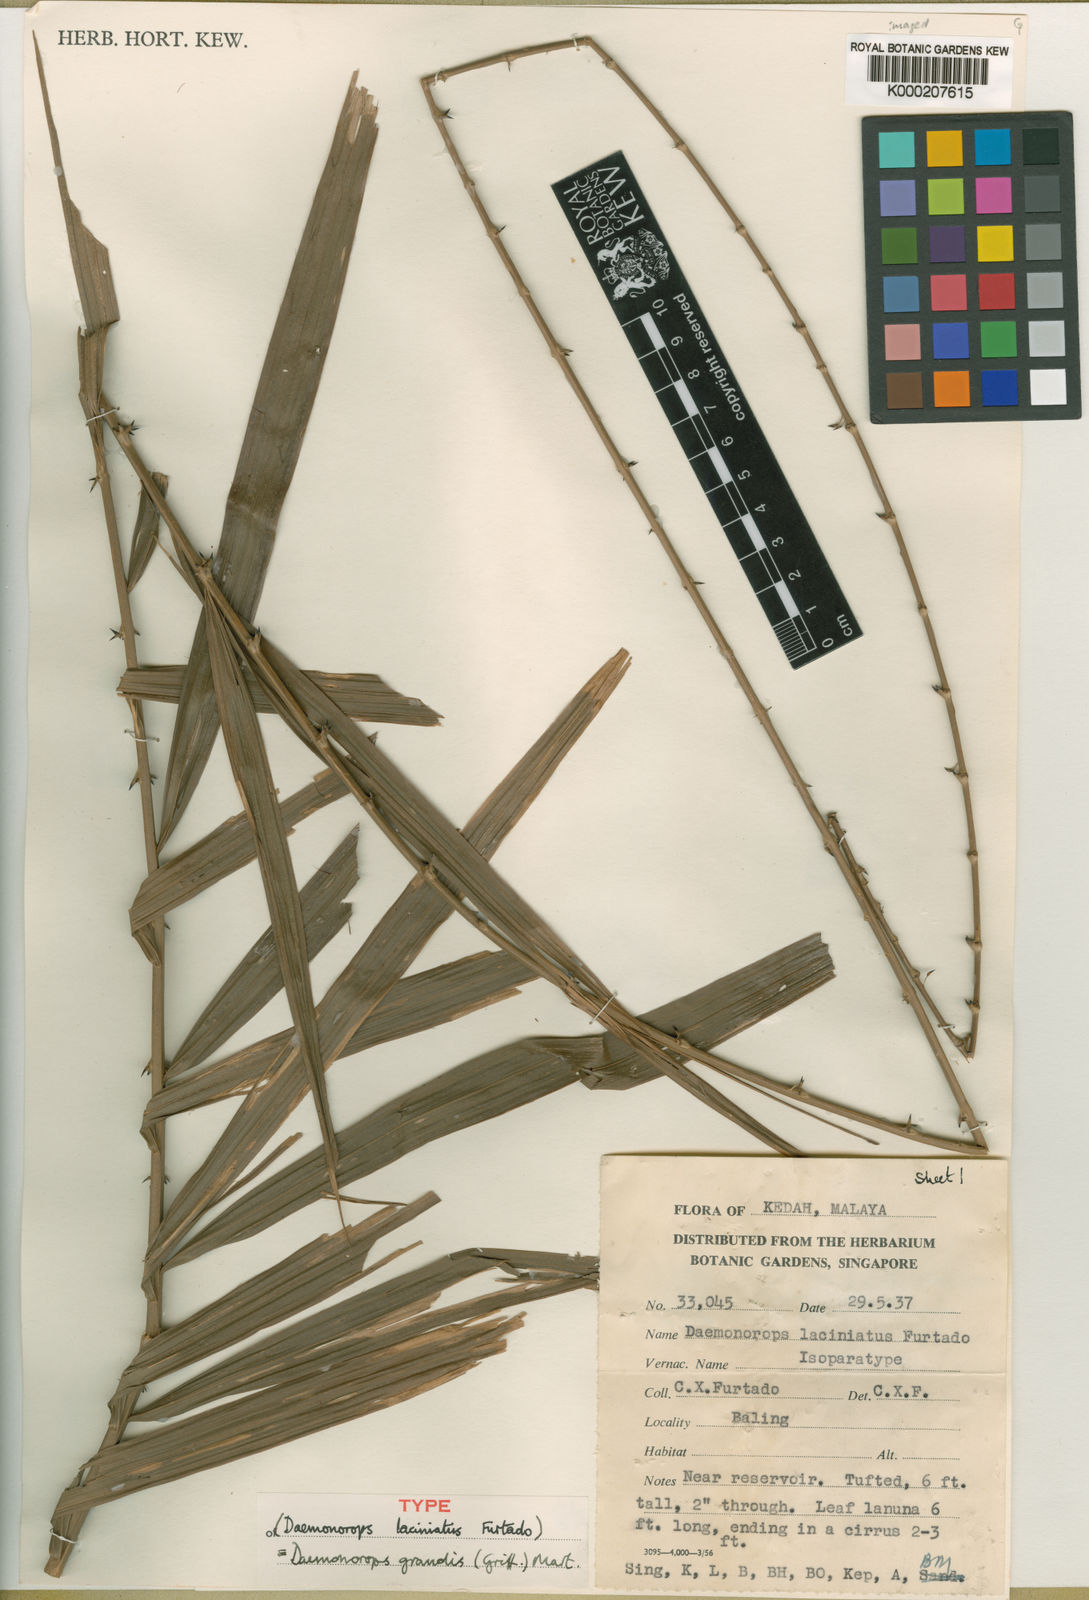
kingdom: Plantae
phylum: Tracheophyta
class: Liliopsida
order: Arecales
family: Arecaceae
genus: Calamus
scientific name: Calamus melanochaetes
